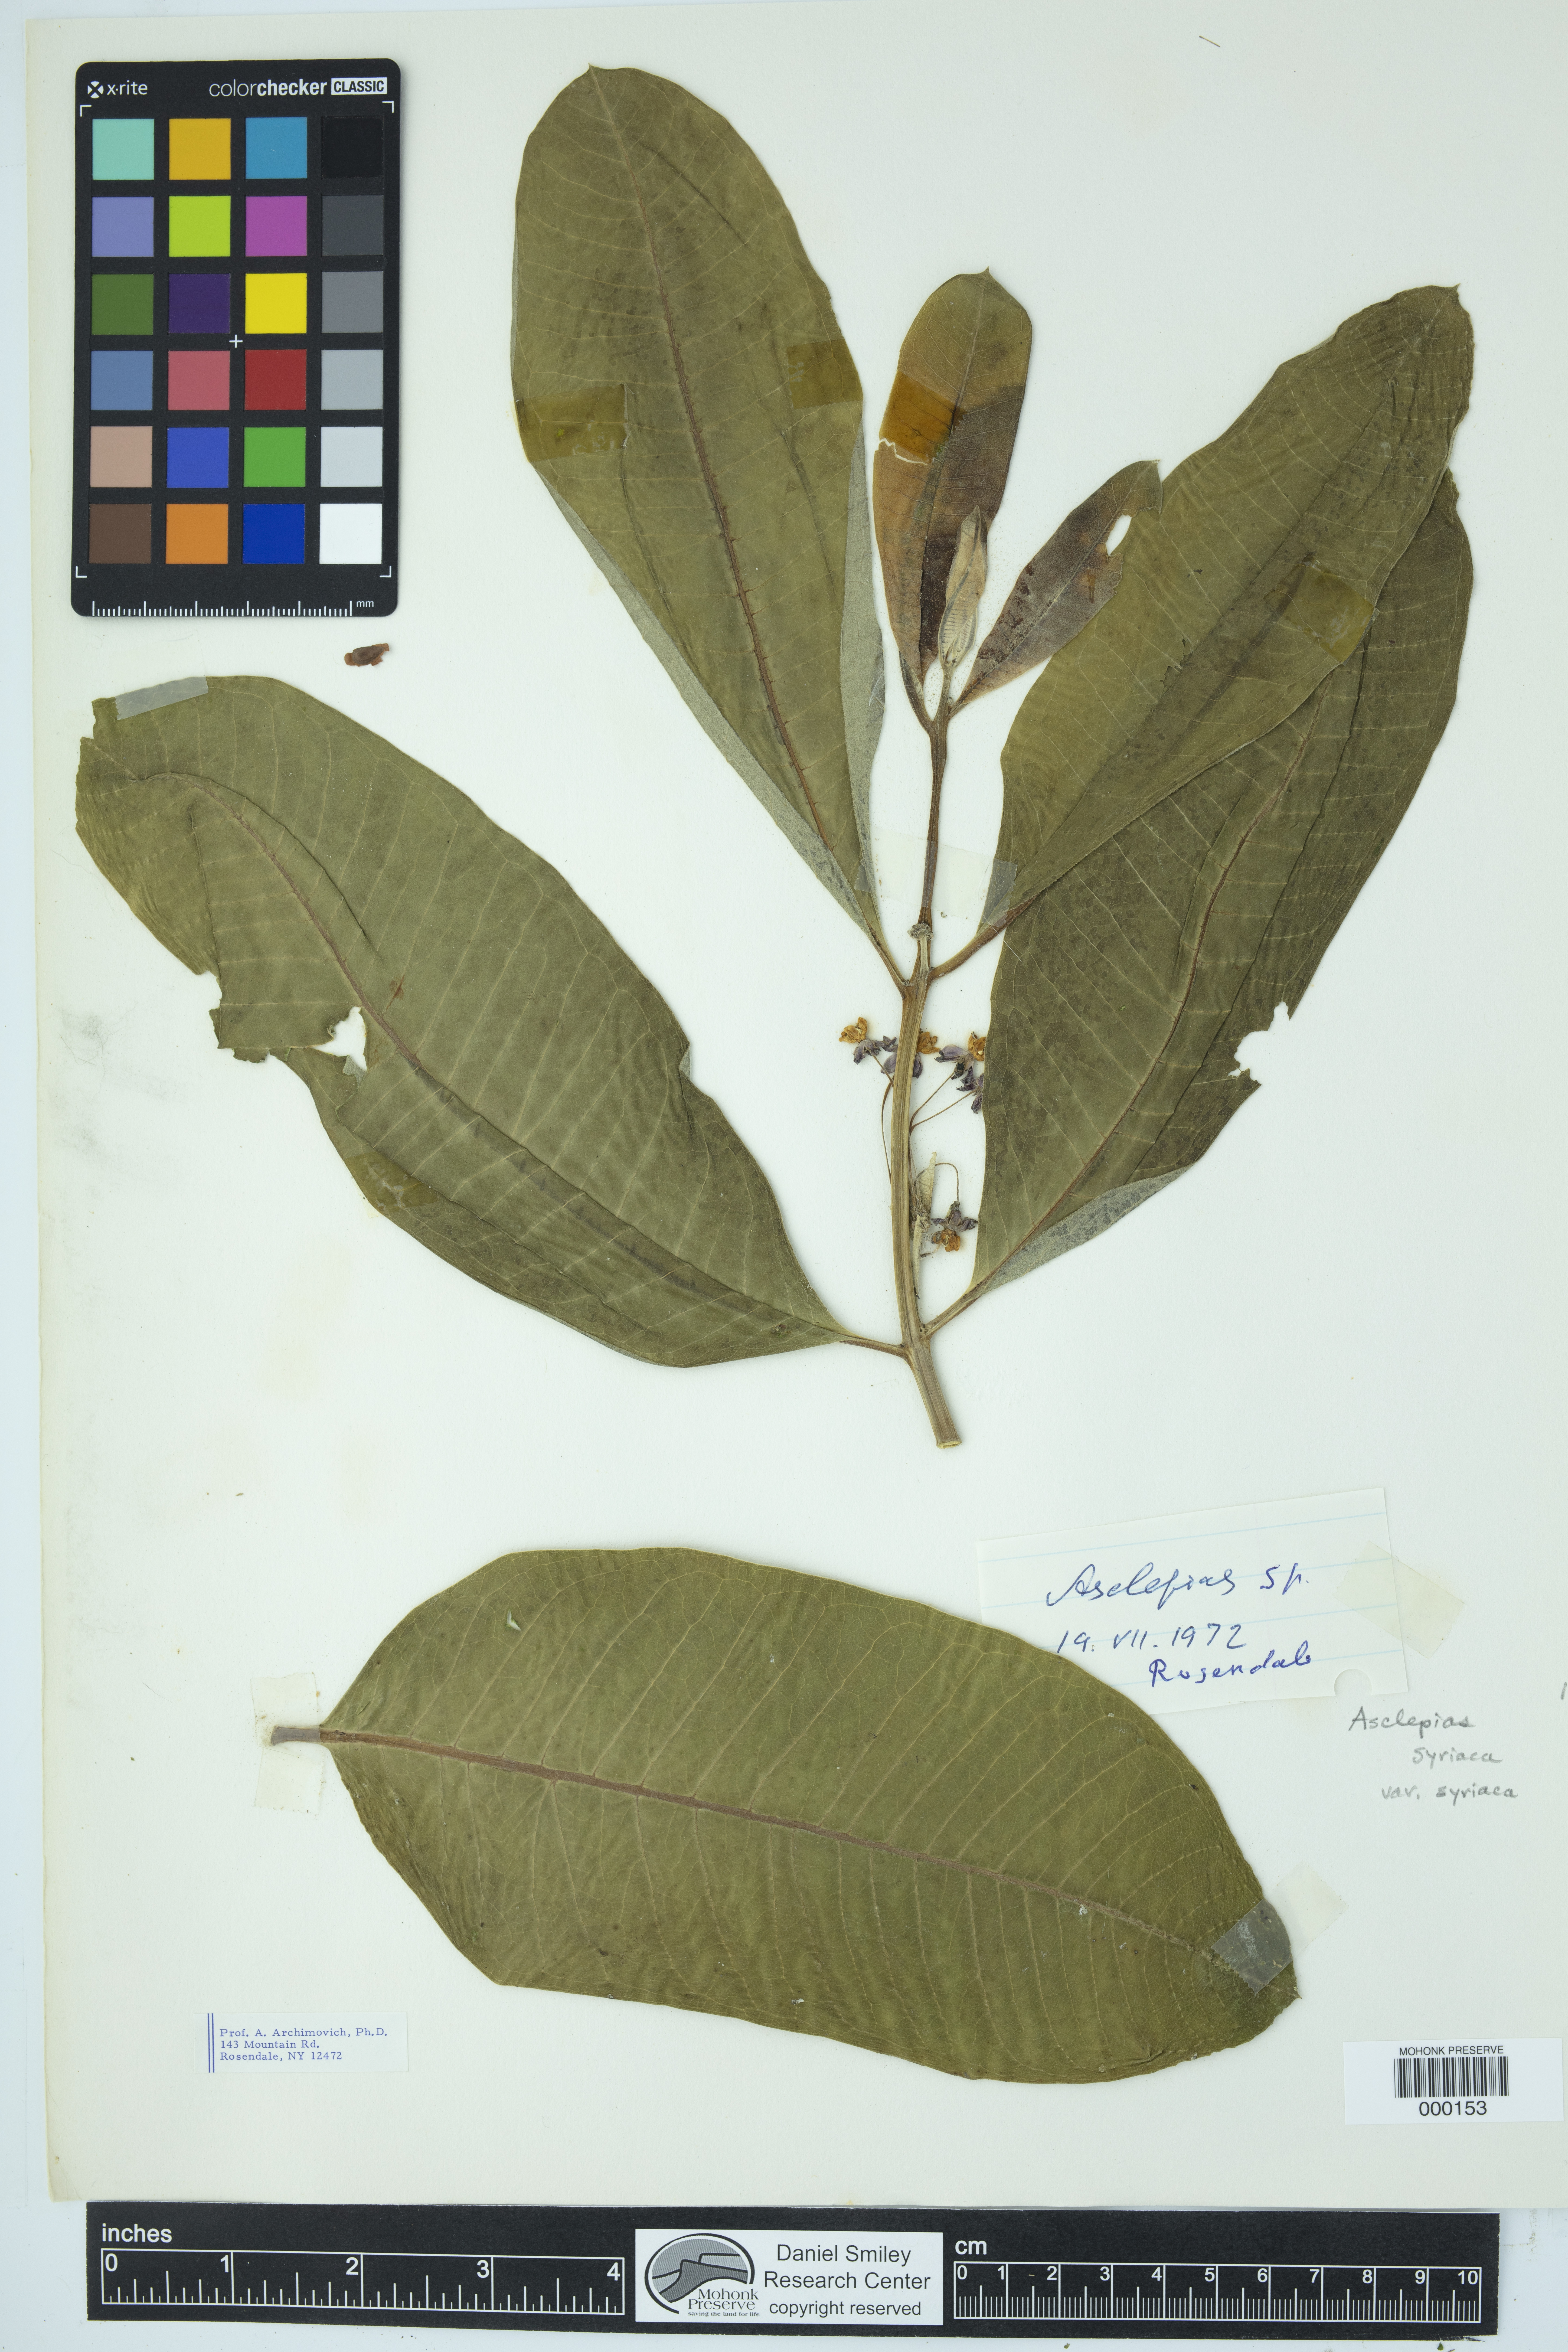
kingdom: Plantae
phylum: Tracheophyta
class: Magnoliopsida
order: Gentianales
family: Apocynaceae
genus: Asclepias
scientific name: Asclepias syriaca
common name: Common milkweed
